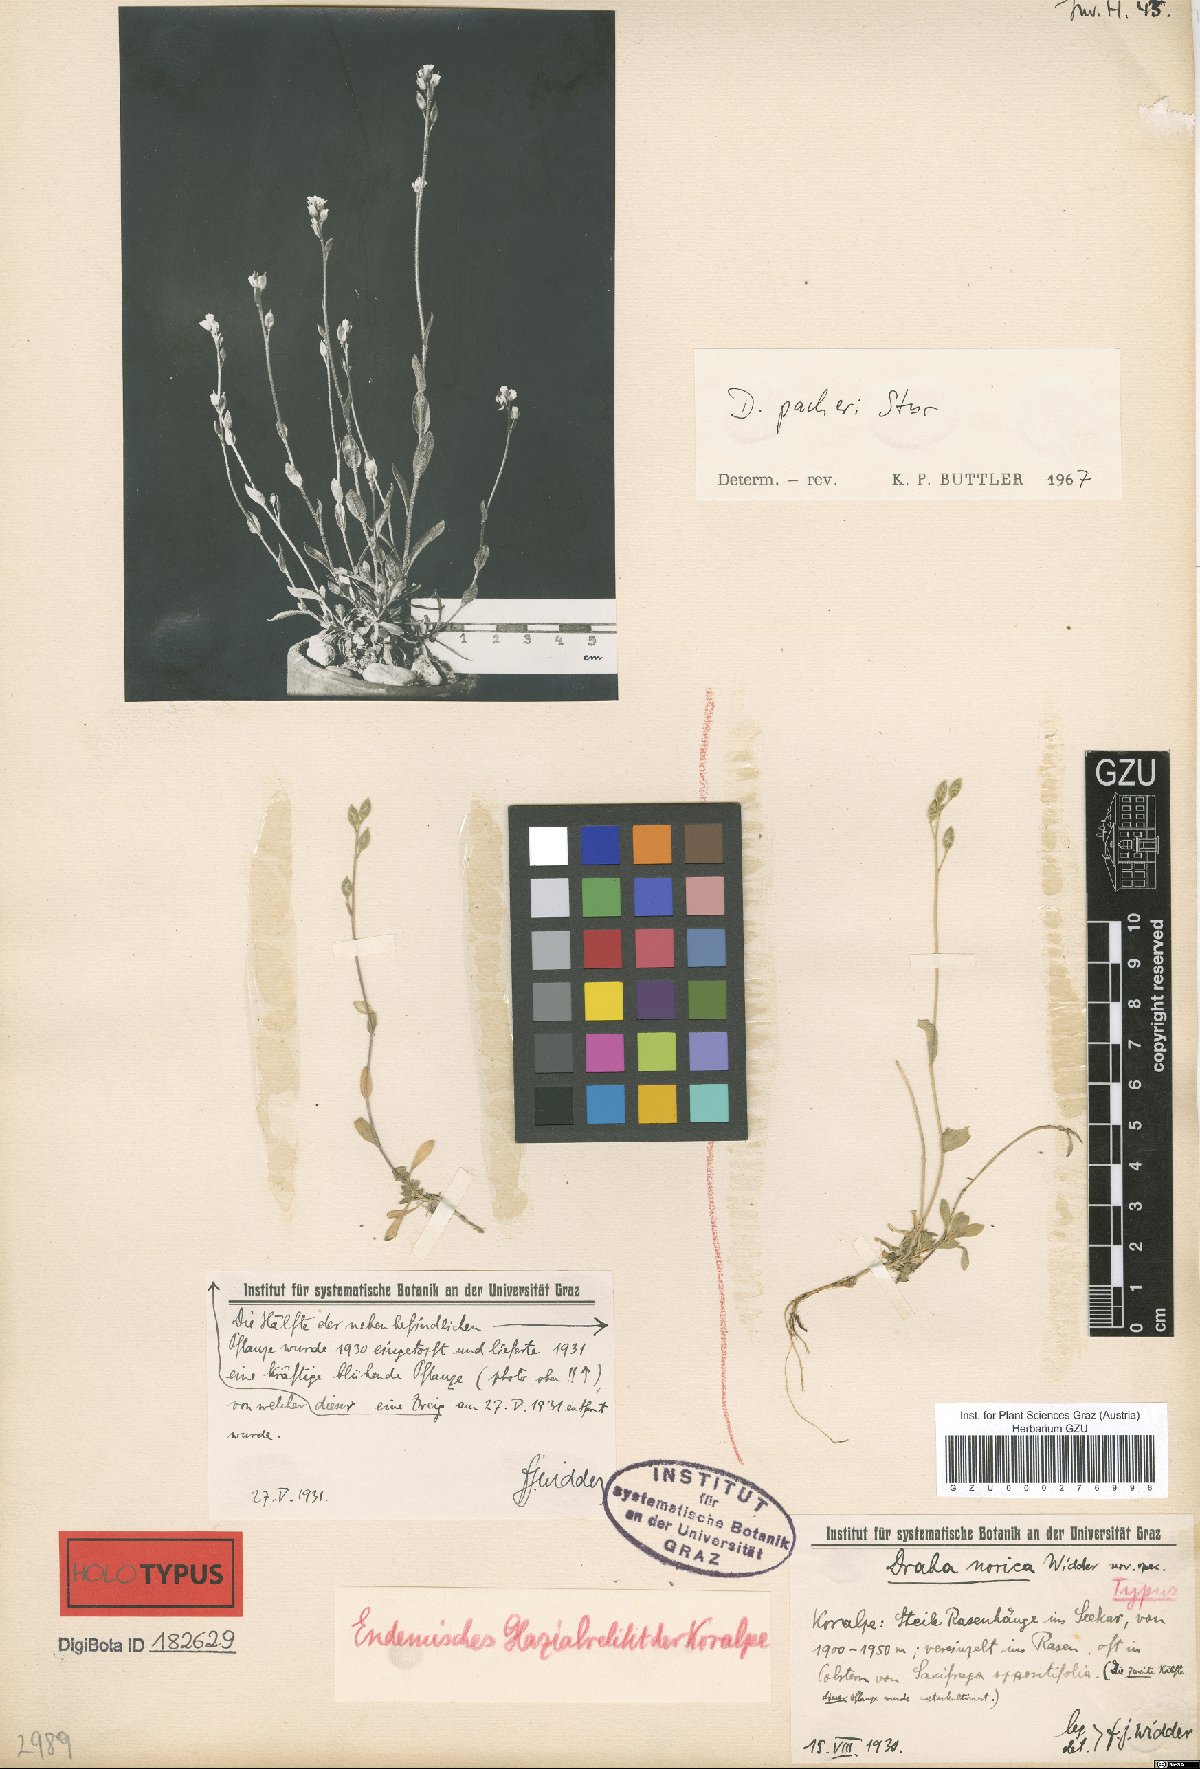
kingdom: Plantae
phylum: Tracheophyta
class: Magnoliopsida
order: Brassicales
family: Brassicaceae
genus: Draba
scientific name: Draba pacheri
